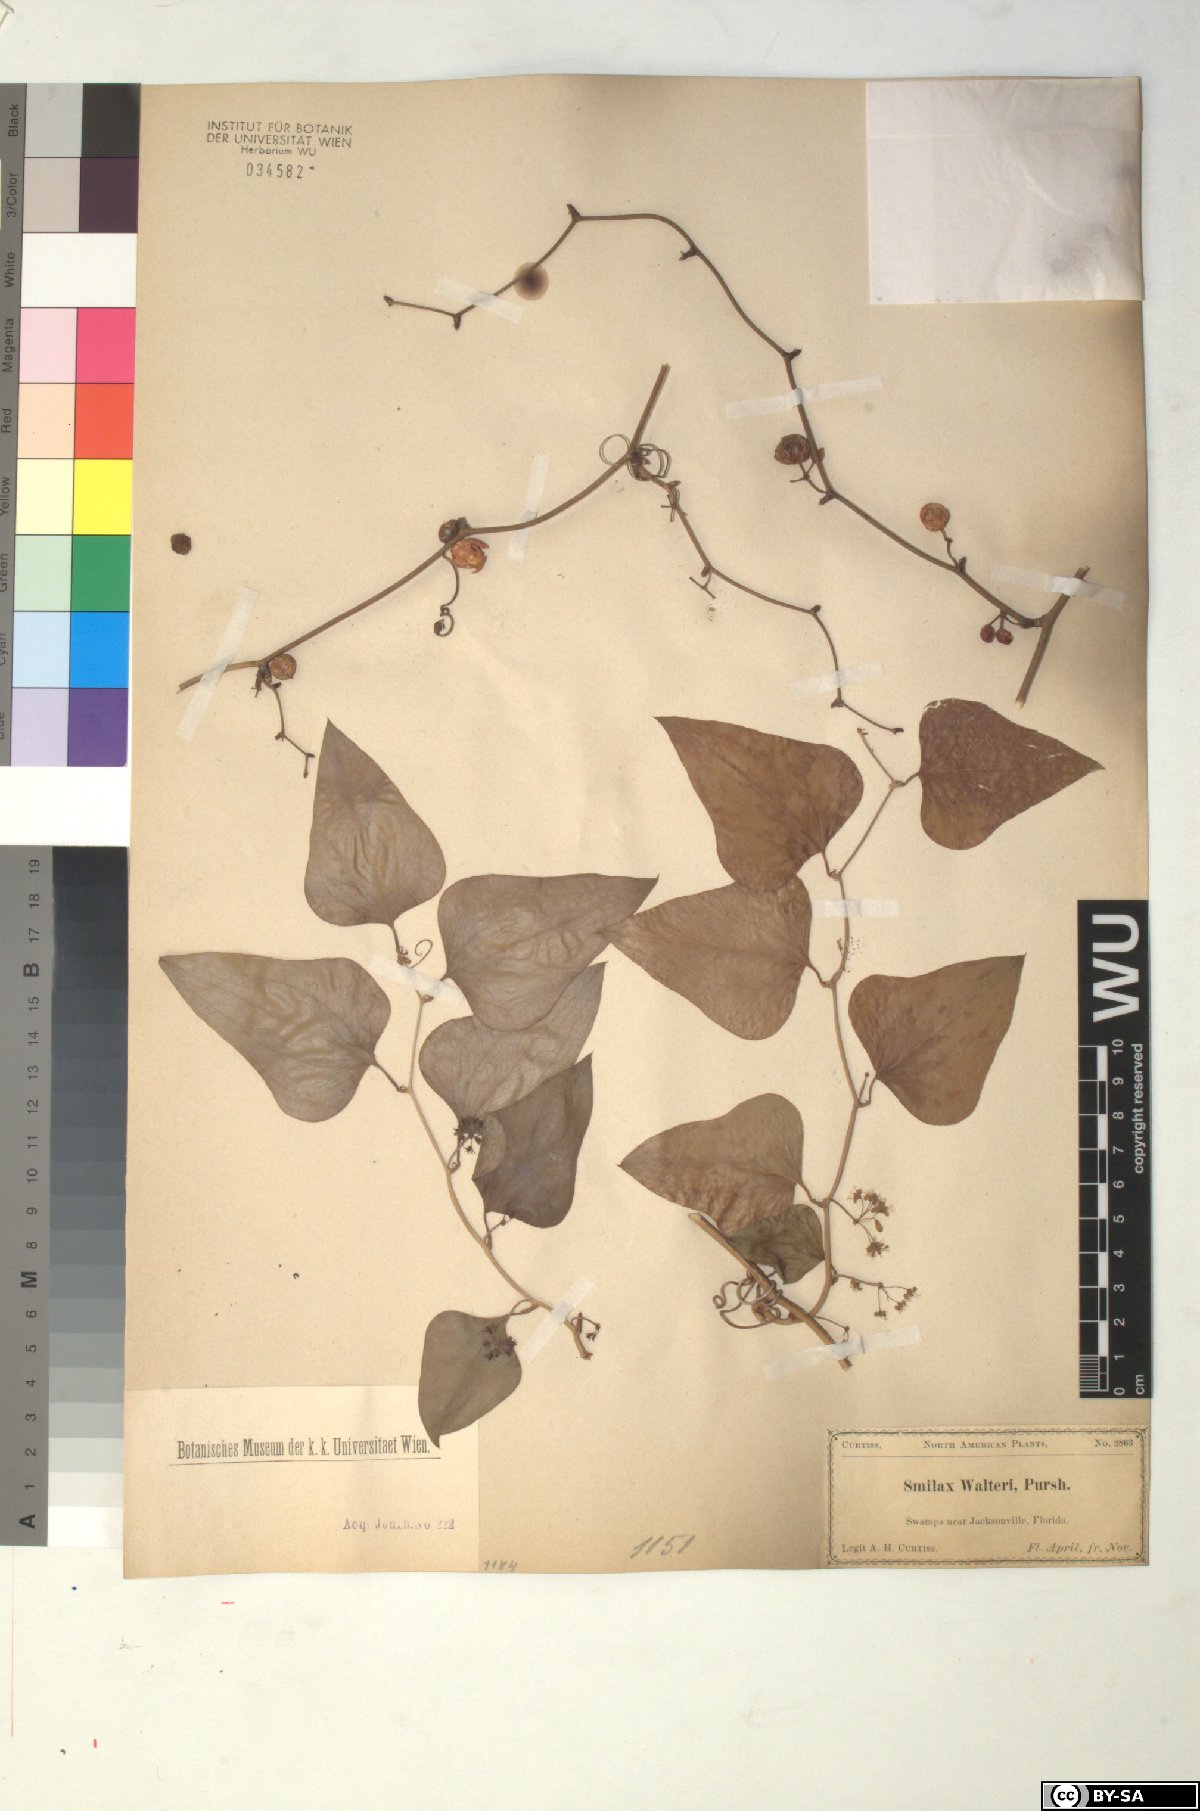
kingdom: Plantae
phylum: Tracheophyta
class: Liliopsida
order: Liliales
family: Smilacaceae
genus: Smilax
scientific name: Smilax walteri
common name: Coral greenbrier
